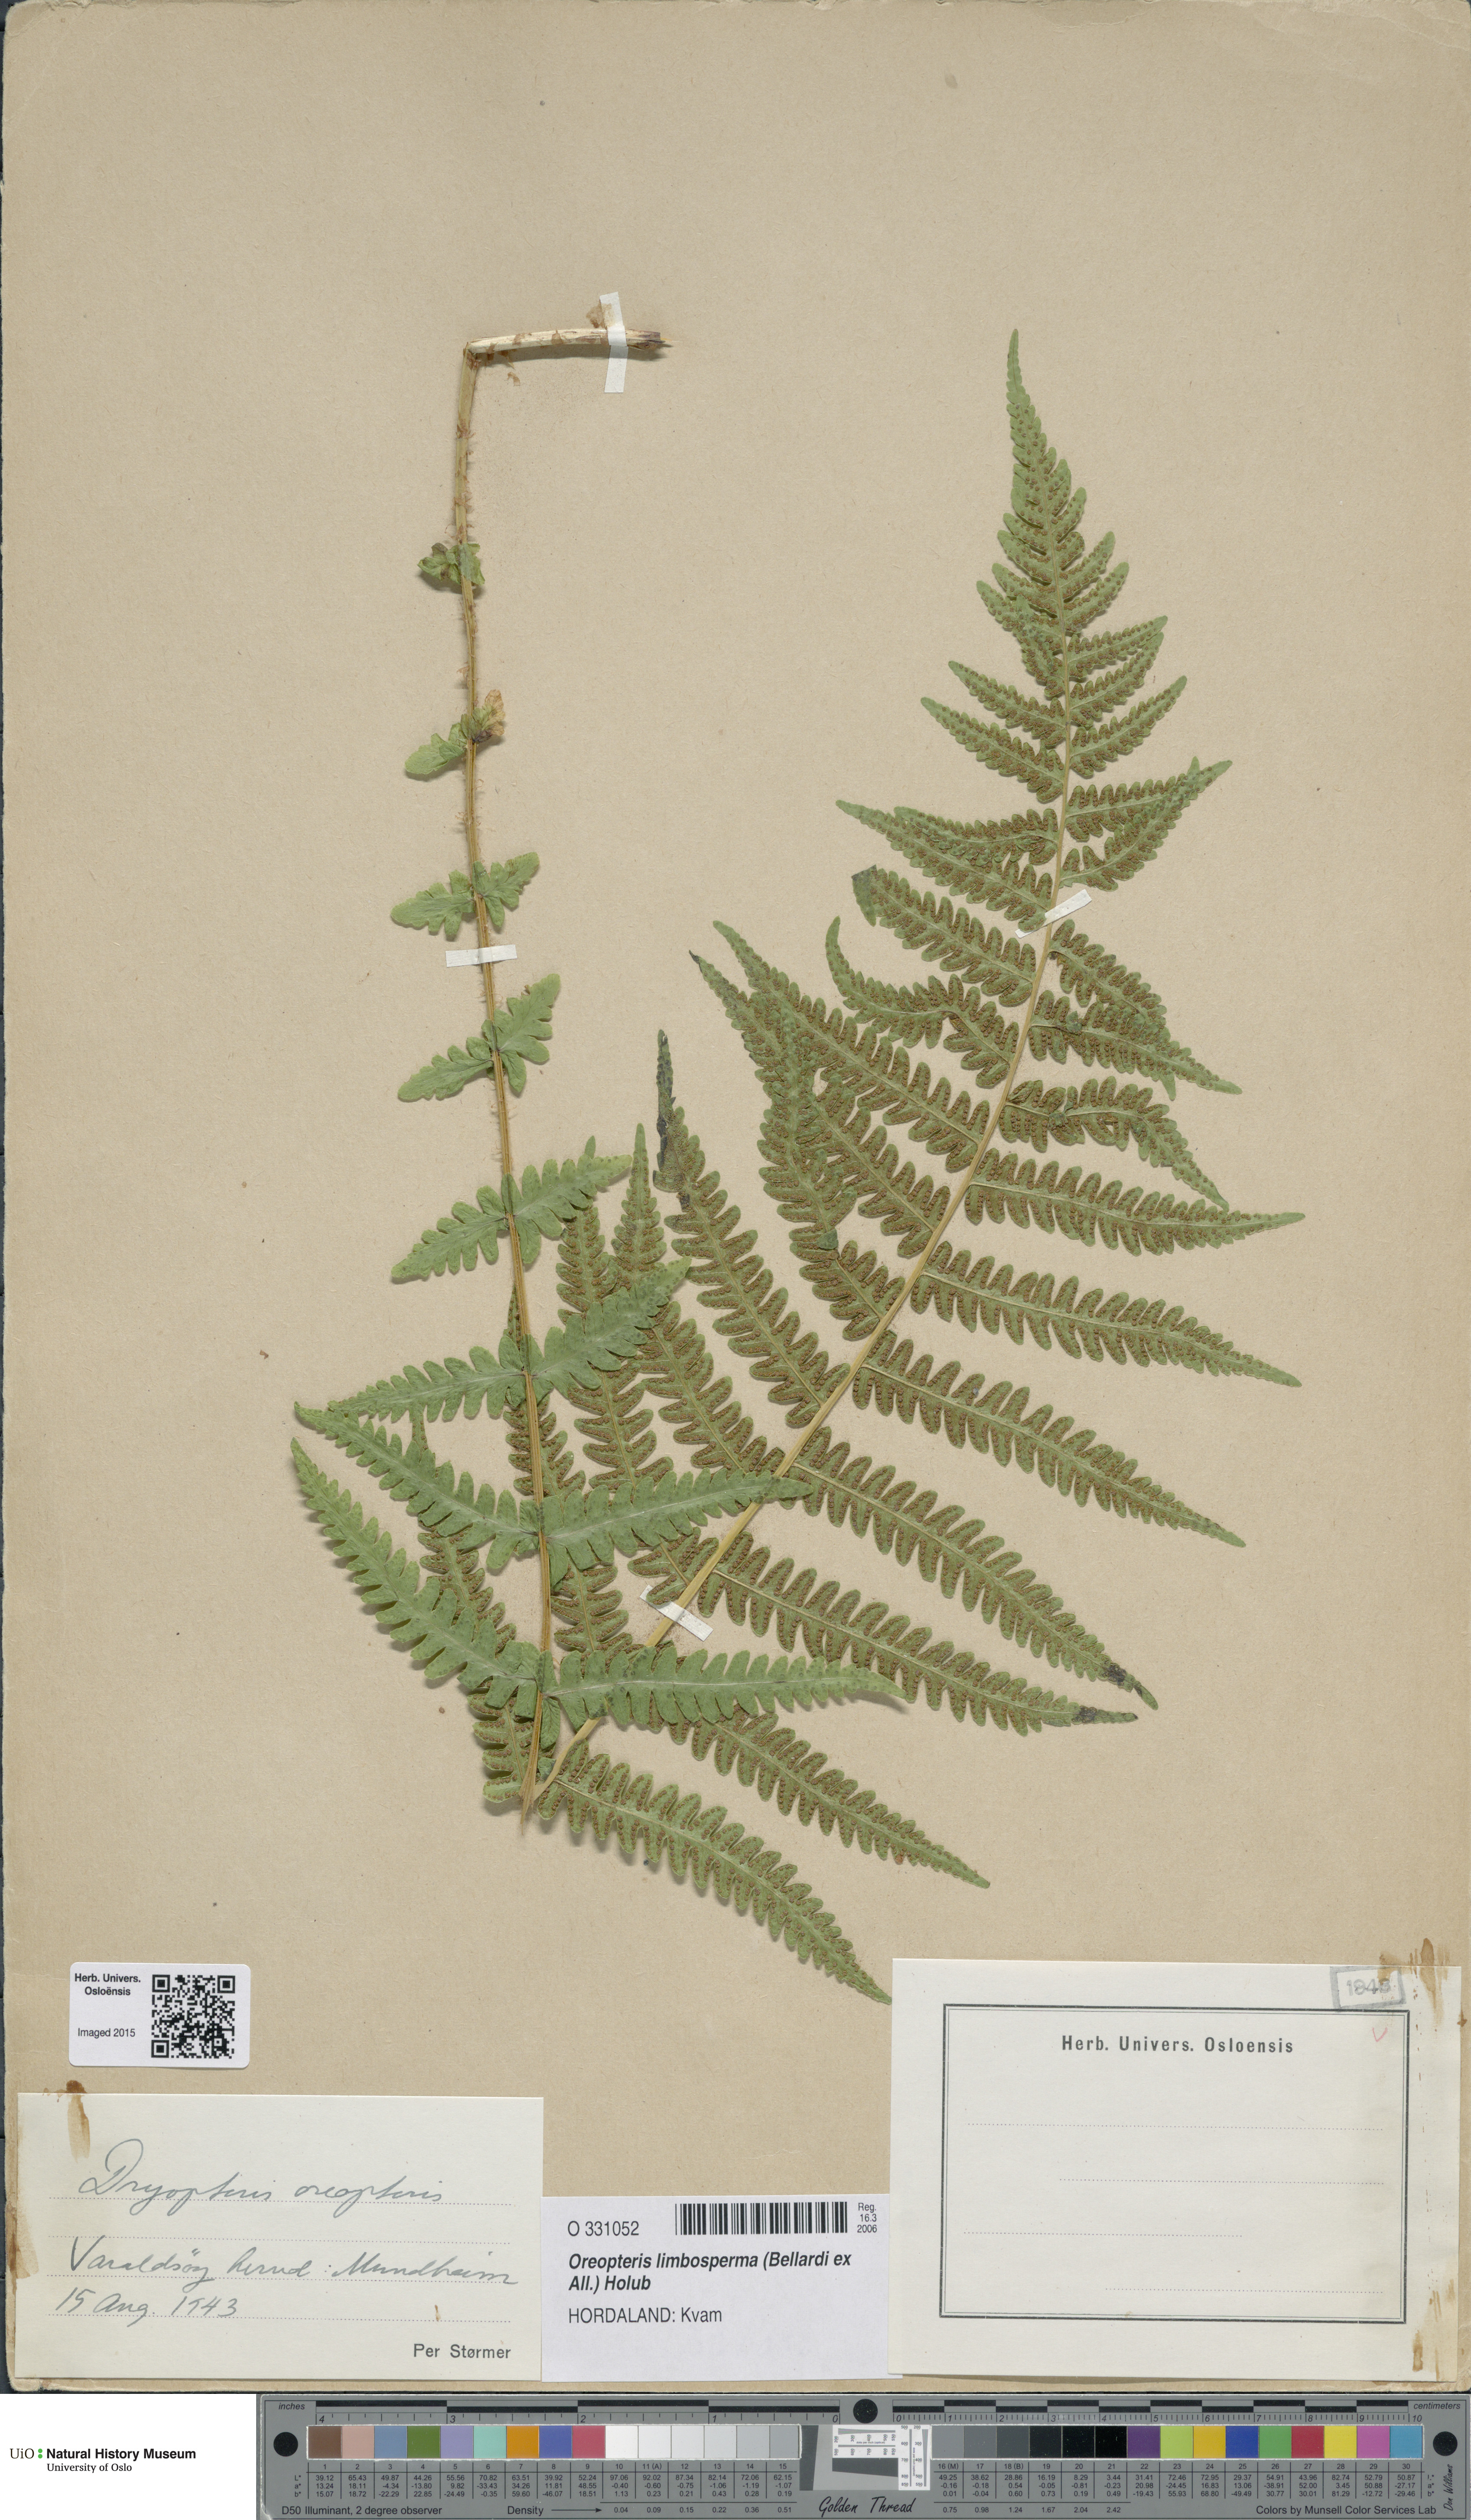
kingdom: Plantae
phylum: Tracheophyta
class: Polypodiopsida
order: Polypodiales
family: Thelypteridaceae
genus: Oreopteris
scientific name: Oreopteris limbosperma
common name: Lemon-scented fern
